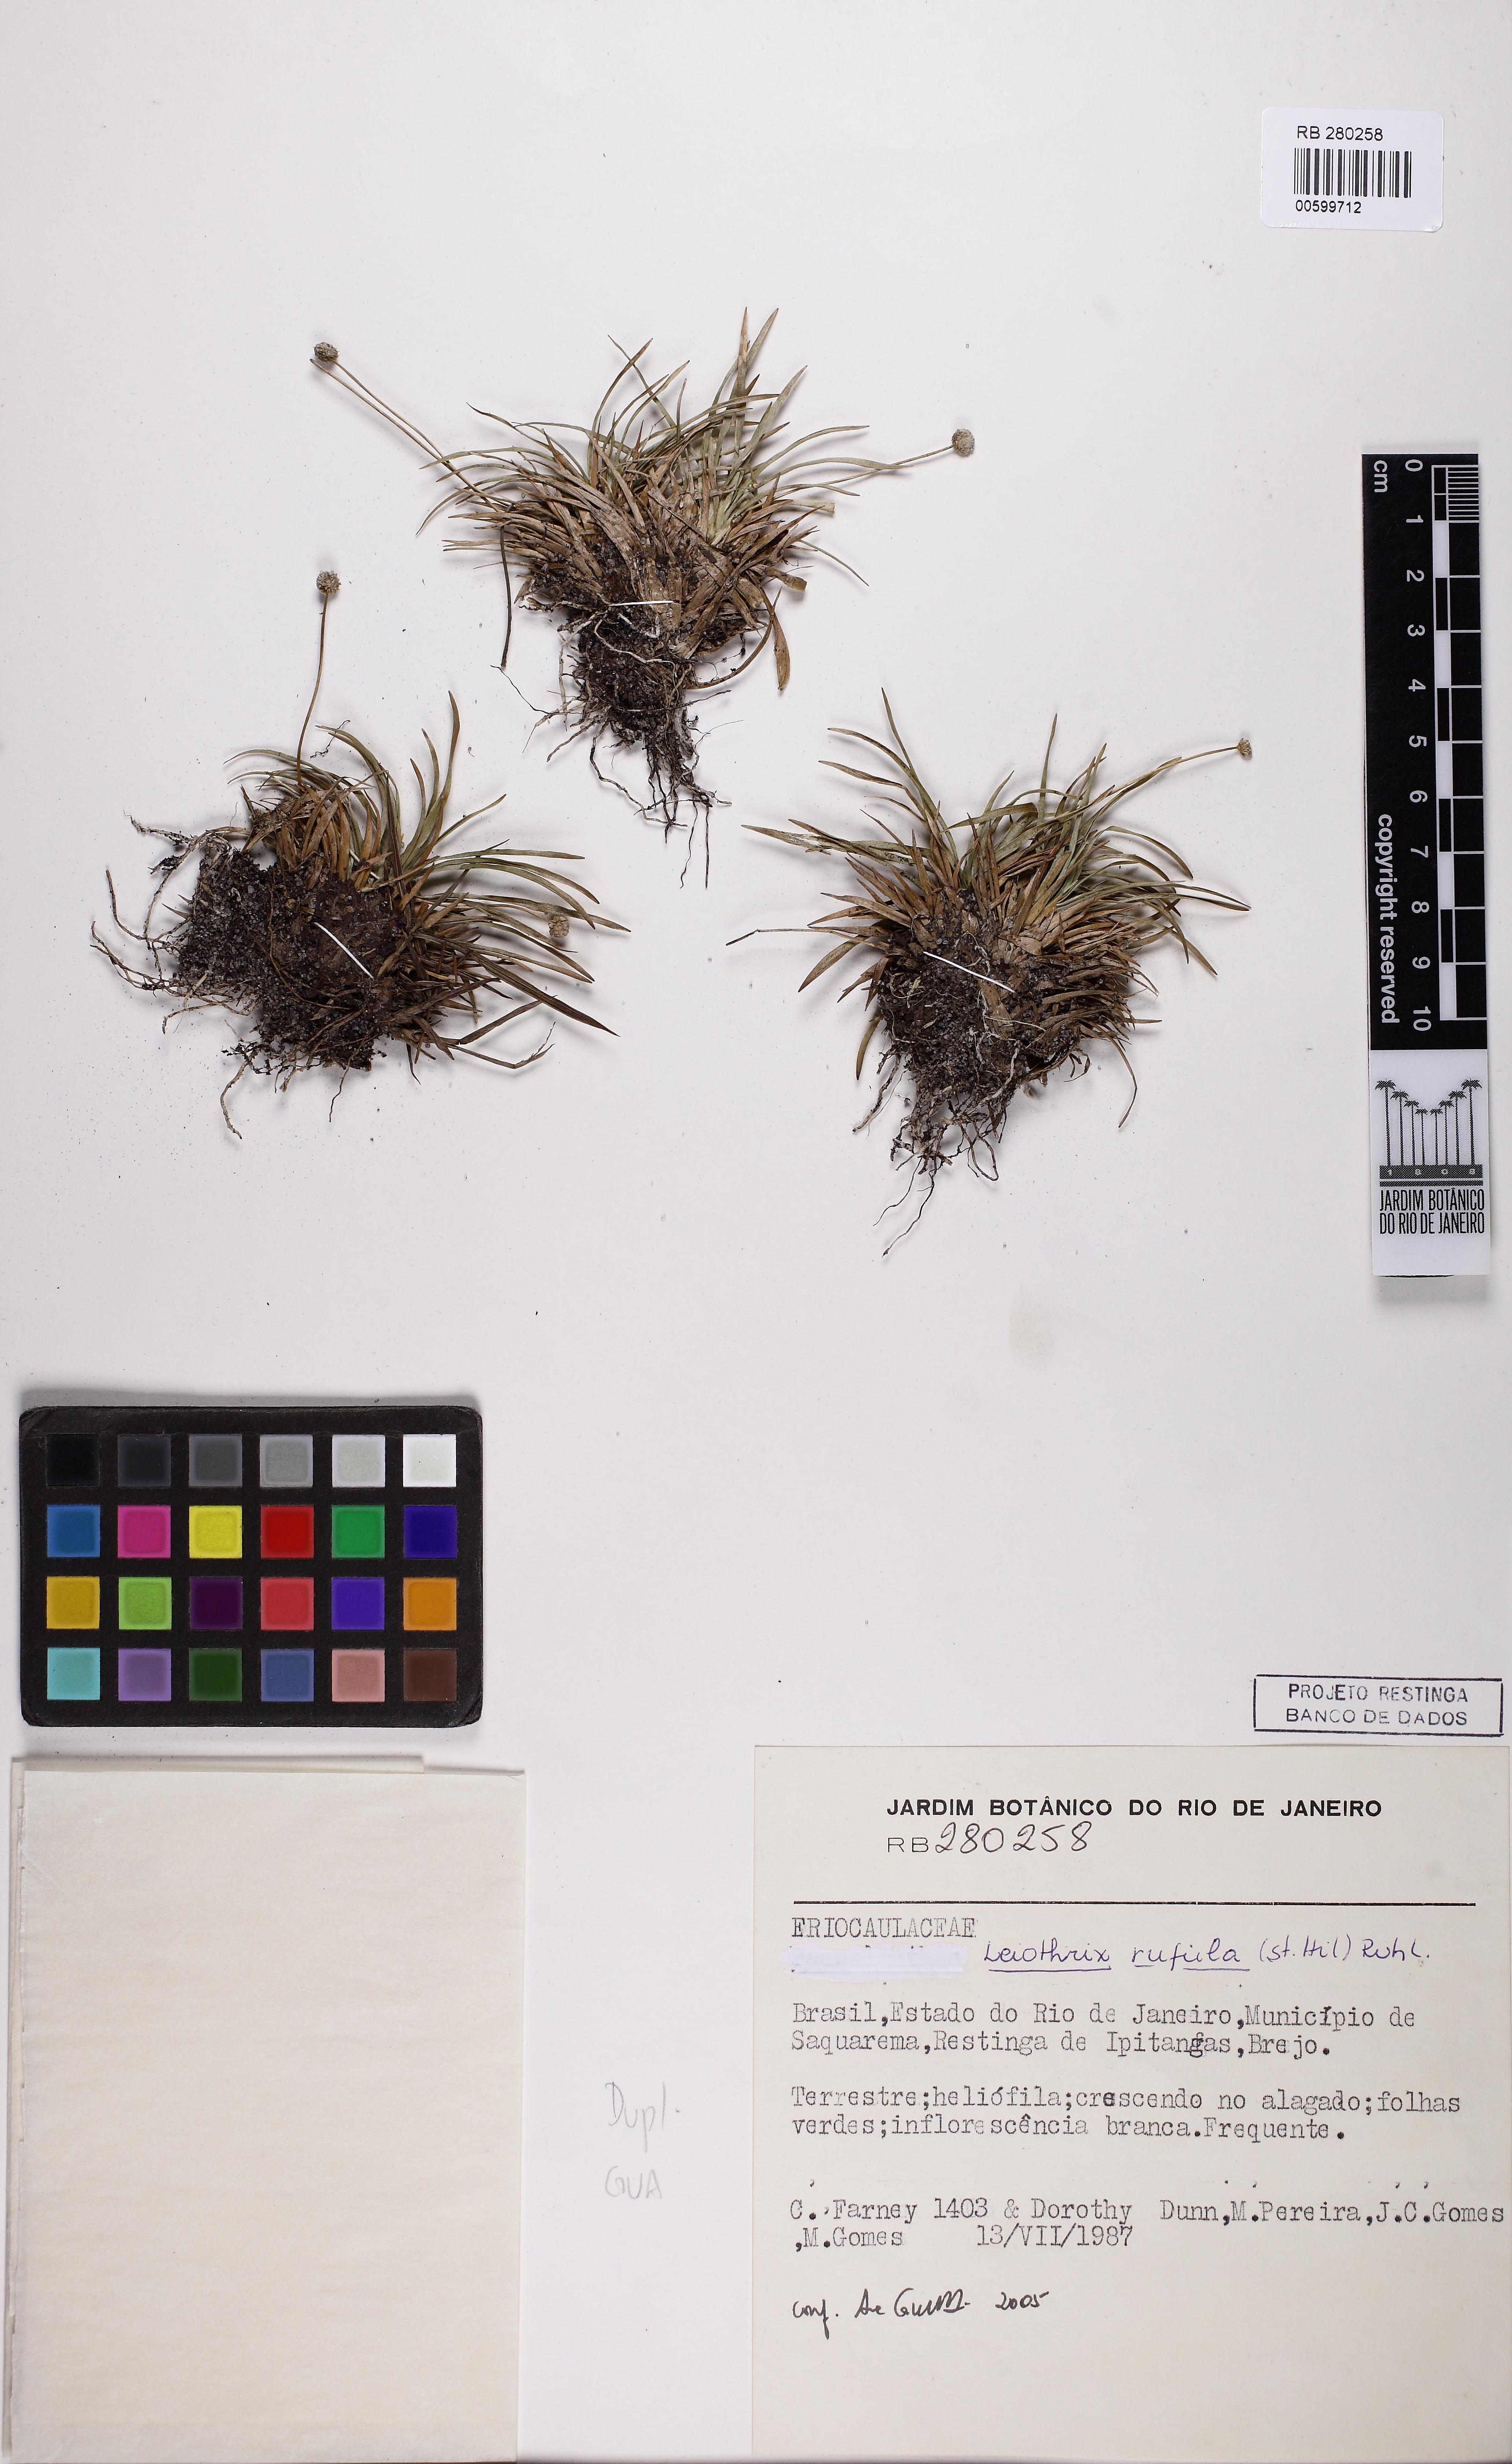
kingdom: Plantae
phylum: Tracheophyta
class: Liliopsida
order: Poales
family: Eriocaulaceae
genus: Leiothrix
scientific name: Leiothrix rufula
